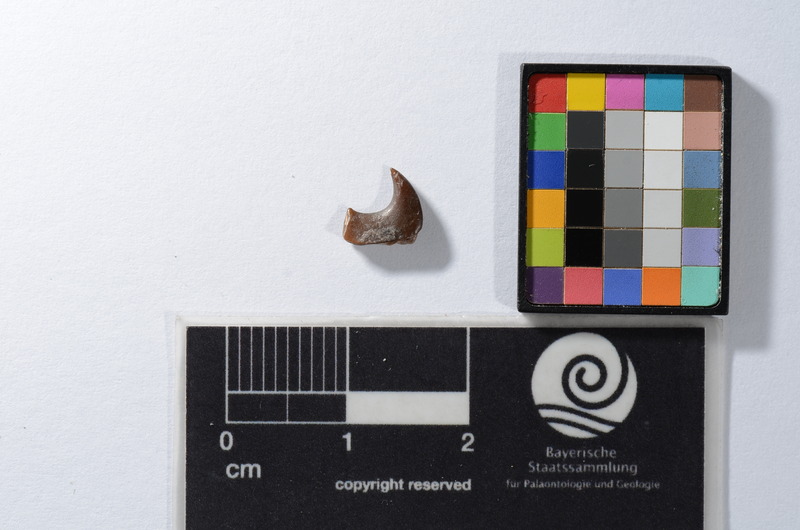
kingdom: Animalia
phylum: Chordata
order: Tetraodontiformes
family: Trigonodontidae
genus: Stephanodus
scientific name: Stephanodus Ancistrodon lybicus
